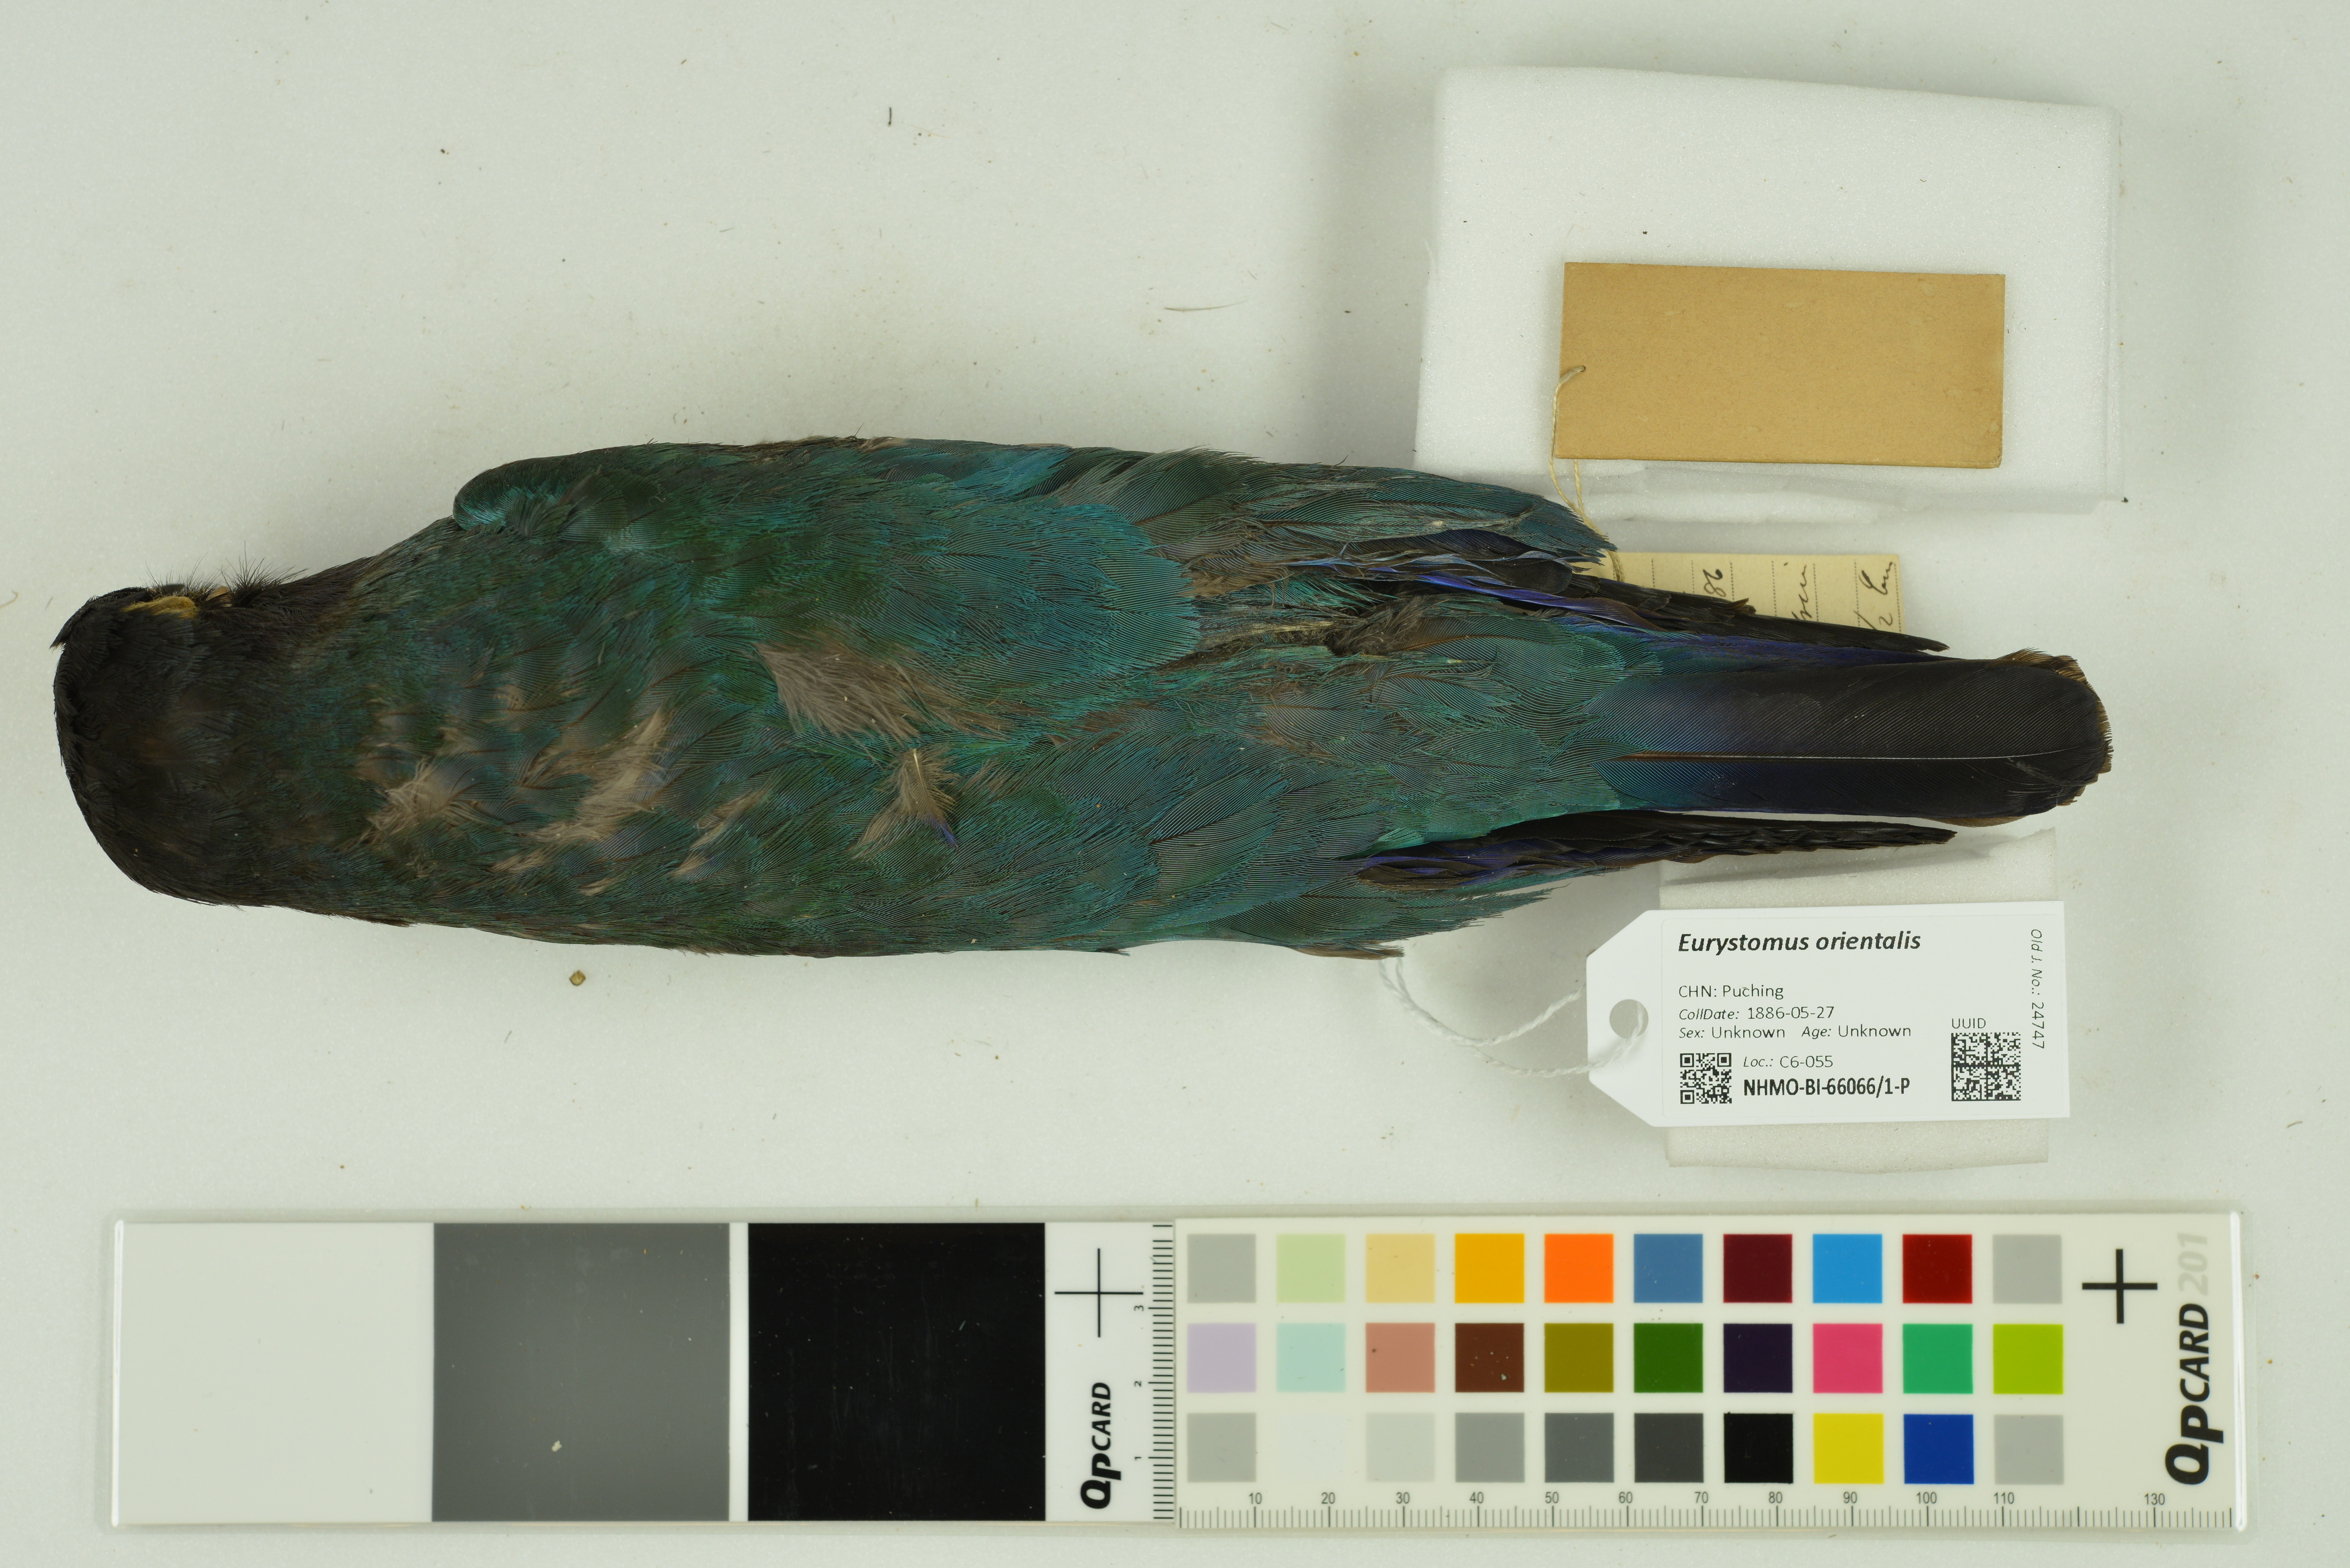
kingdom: Animalia
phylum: Chordata
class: Aves
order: Coraciiformes
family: Coraciidae
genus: Eurystomus
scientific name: Eurystomus orientalis
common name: Oriental dollarbird
